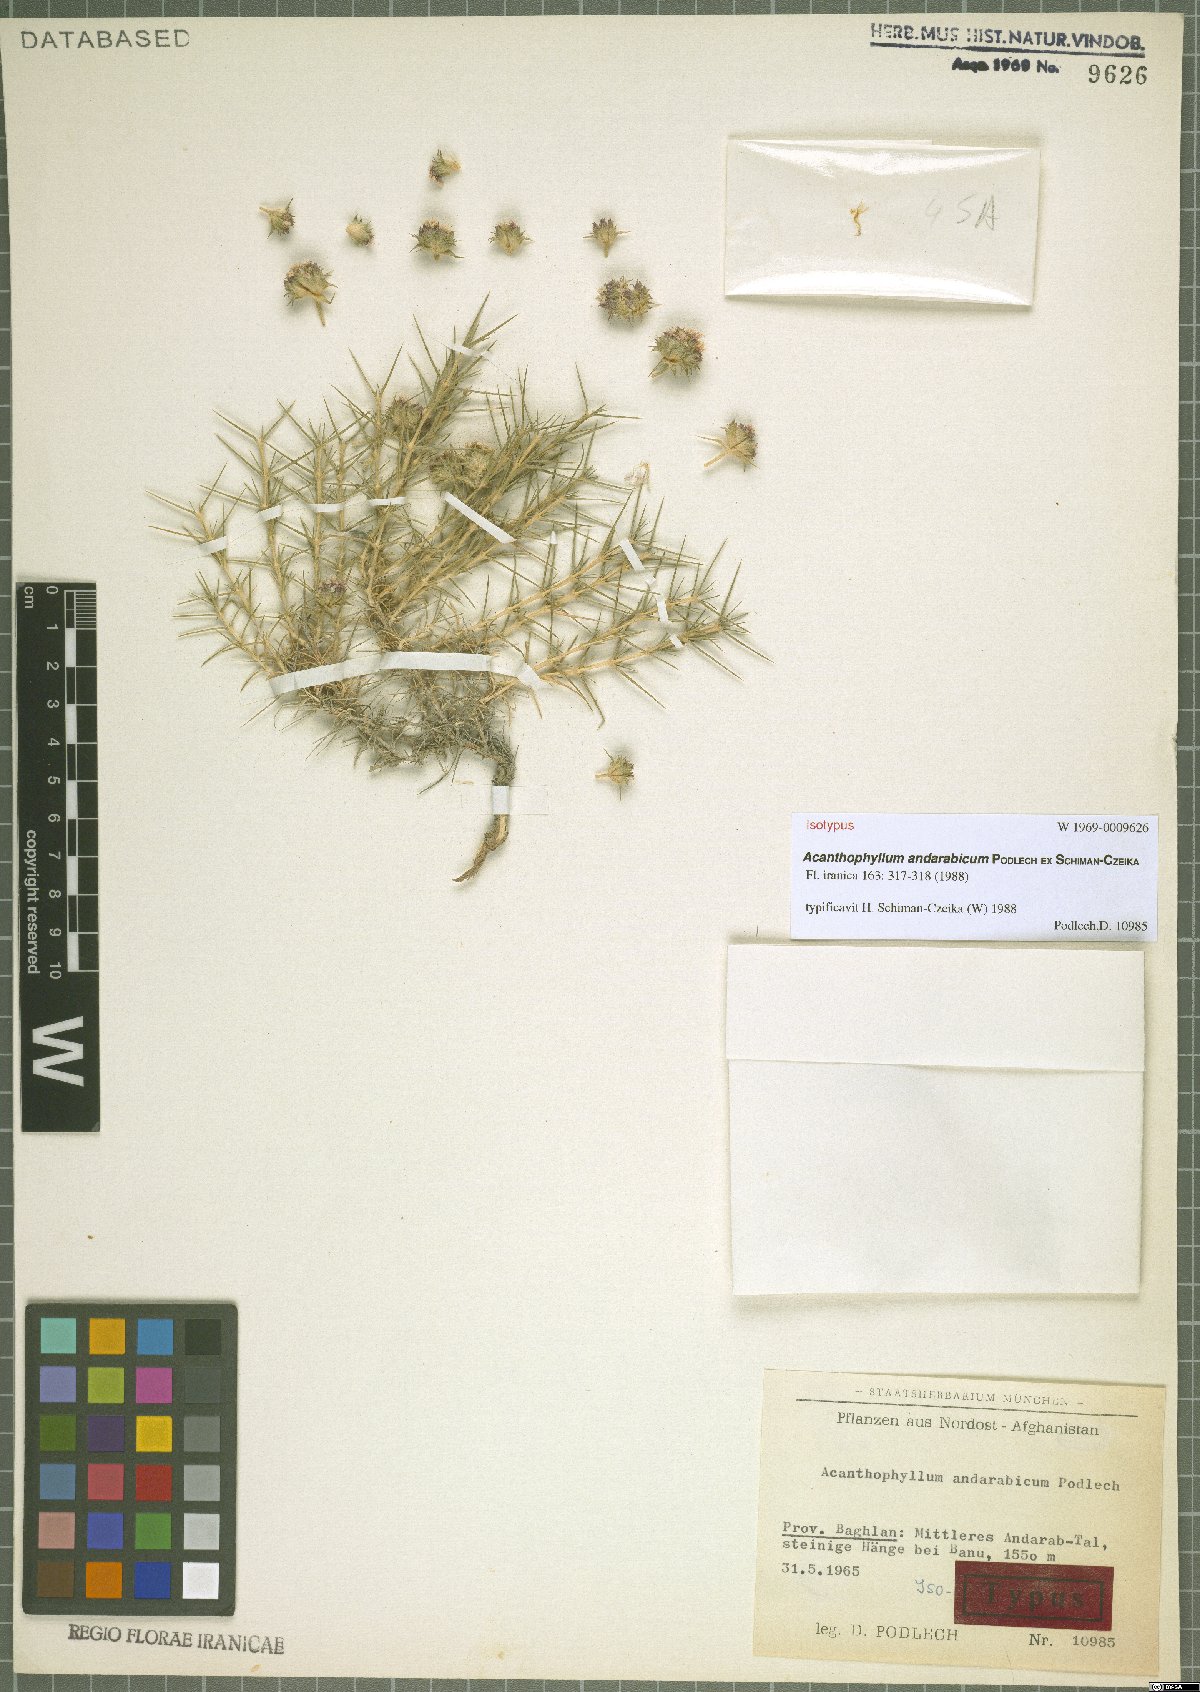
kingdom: Plantae
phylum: Tracheophyta
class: Magnoliopsida
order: Caryophyllales
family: Caryophyllaceae
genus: Acanthophyllum
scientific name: Acanthophyllum andarabicum
